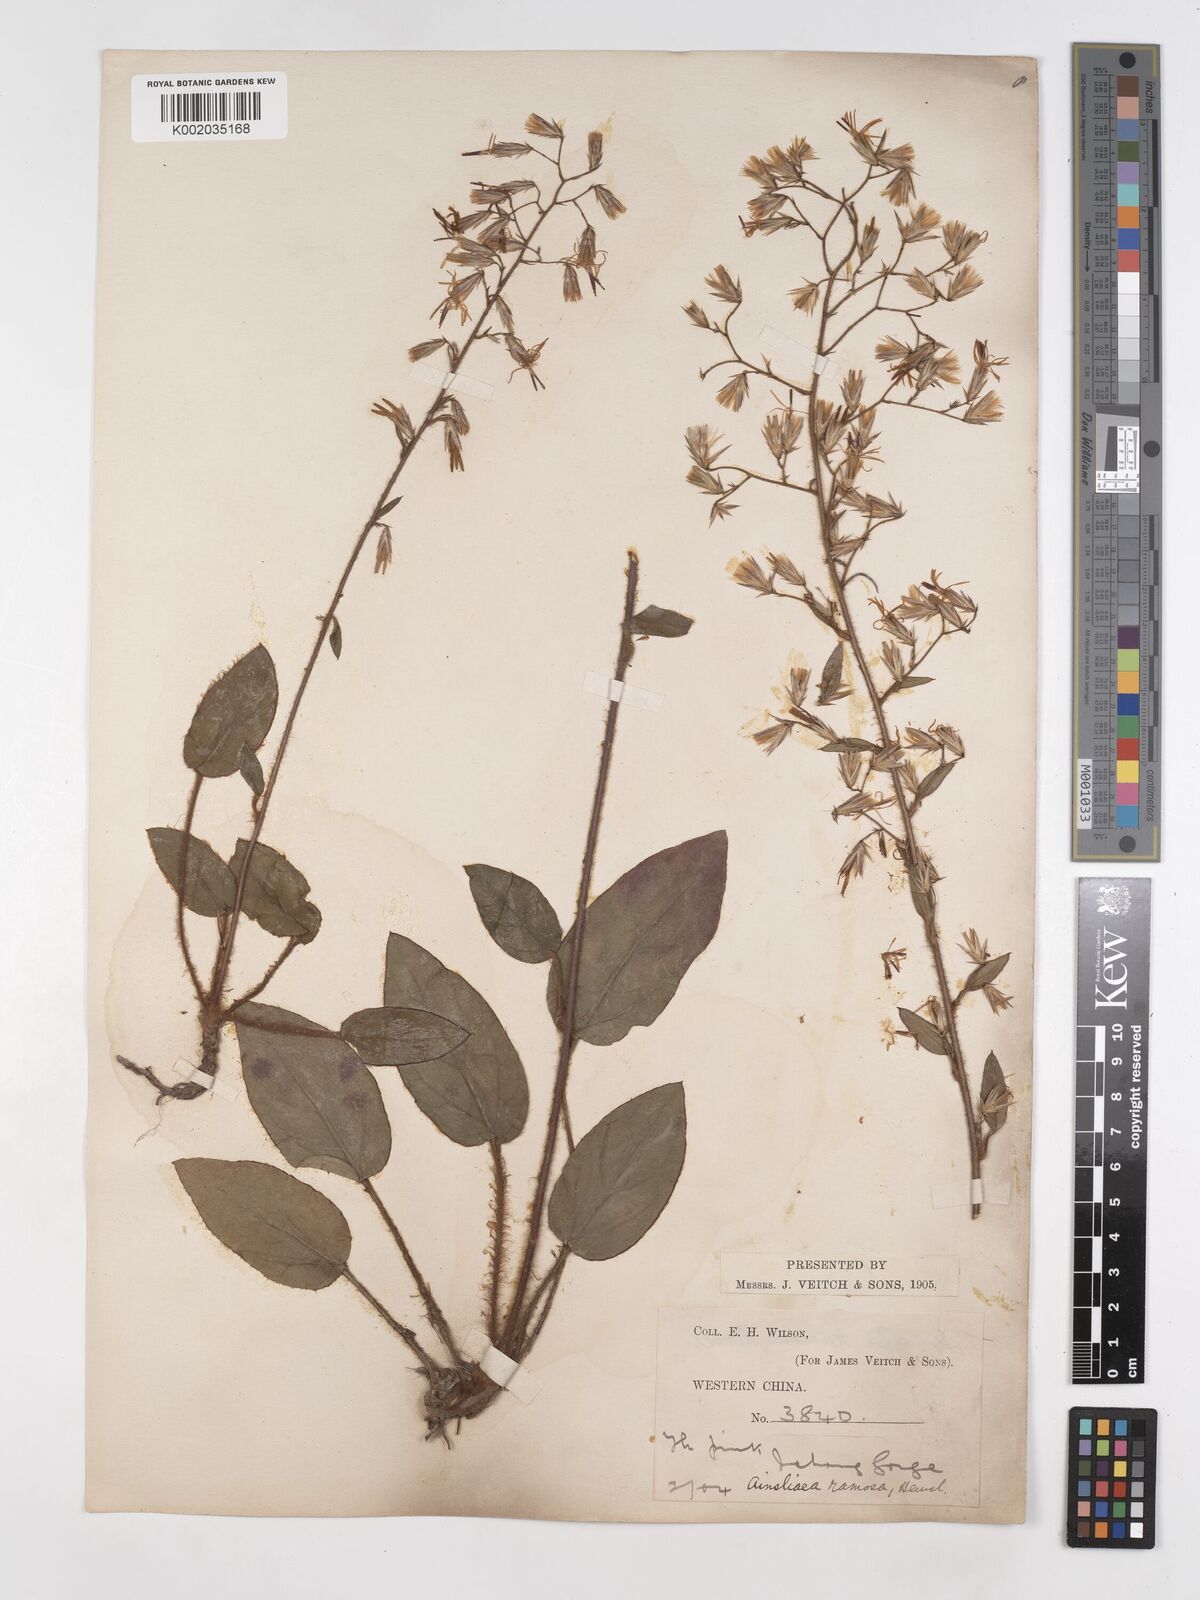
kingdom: Plantae
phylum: Tracheophyta
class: Magnoliopsida
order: Asterales
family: Asteraceae
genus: Ainsliaea
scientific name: Ainsliaea ramosa
